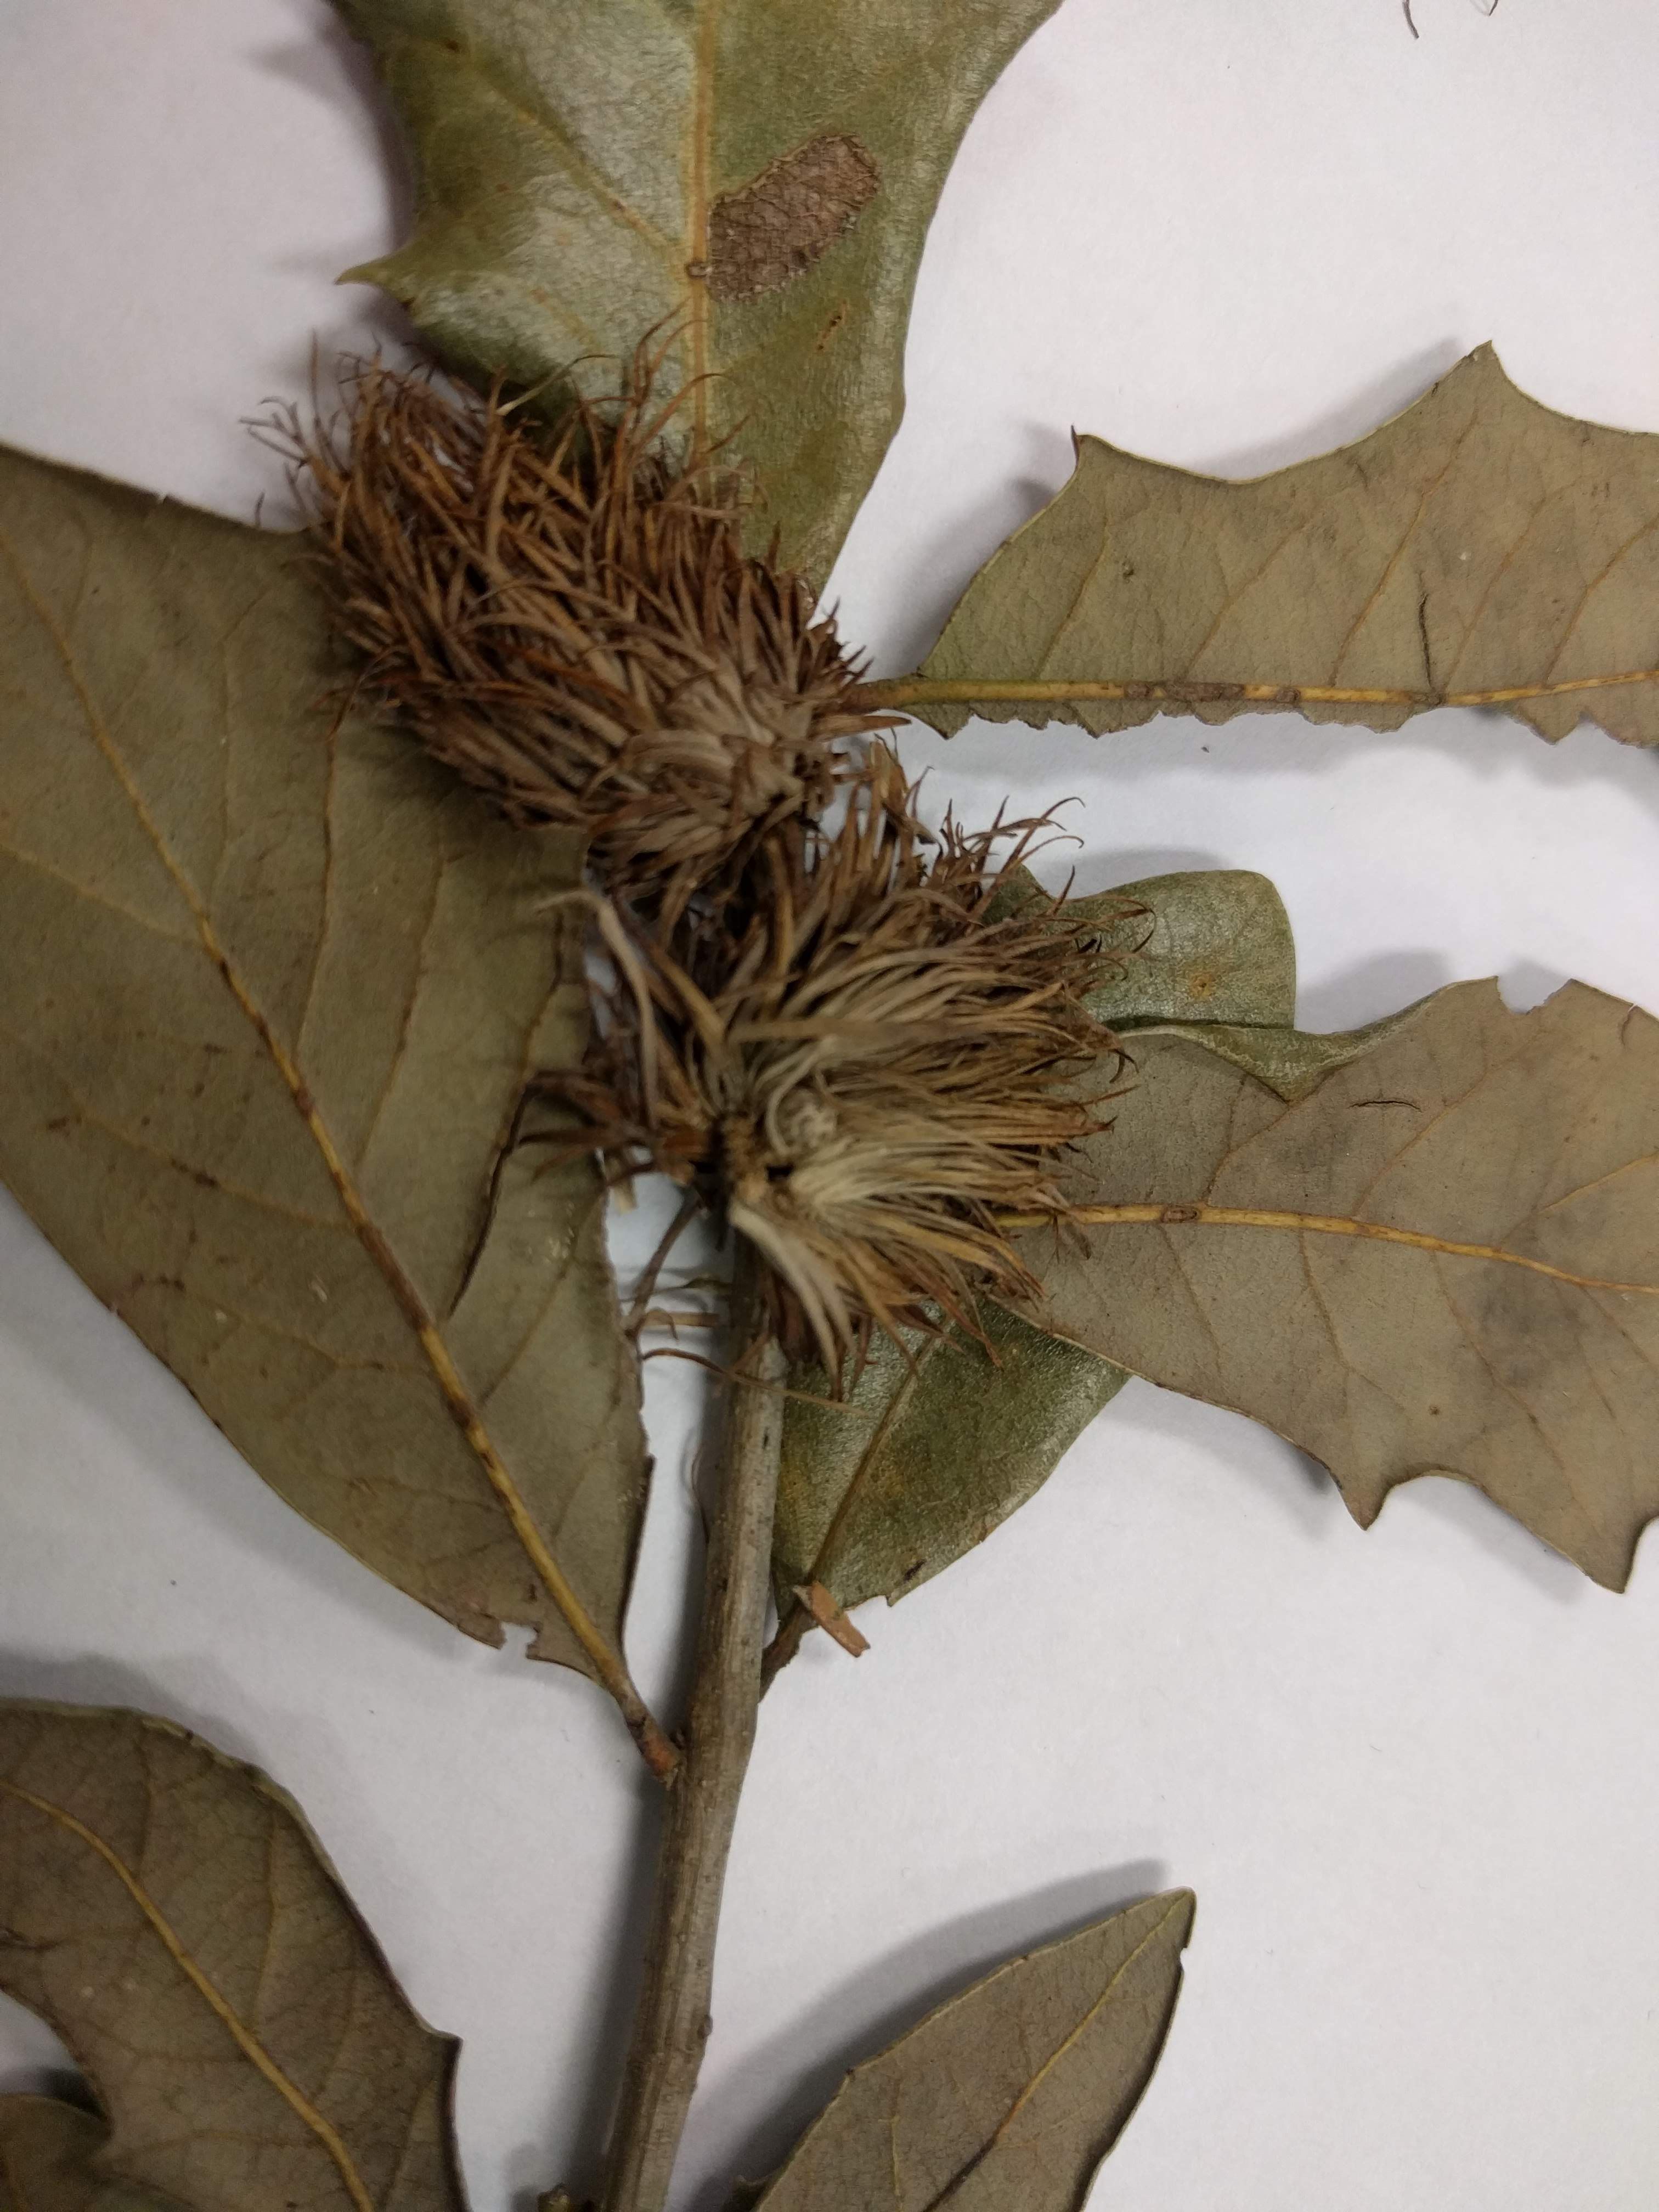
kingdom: Plantae
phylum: Tracheophyta
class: Magnoliopsida
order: Fagales
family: Fagaceae
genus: Quercus
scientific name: Quercus virginiana
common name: Southern live oak
